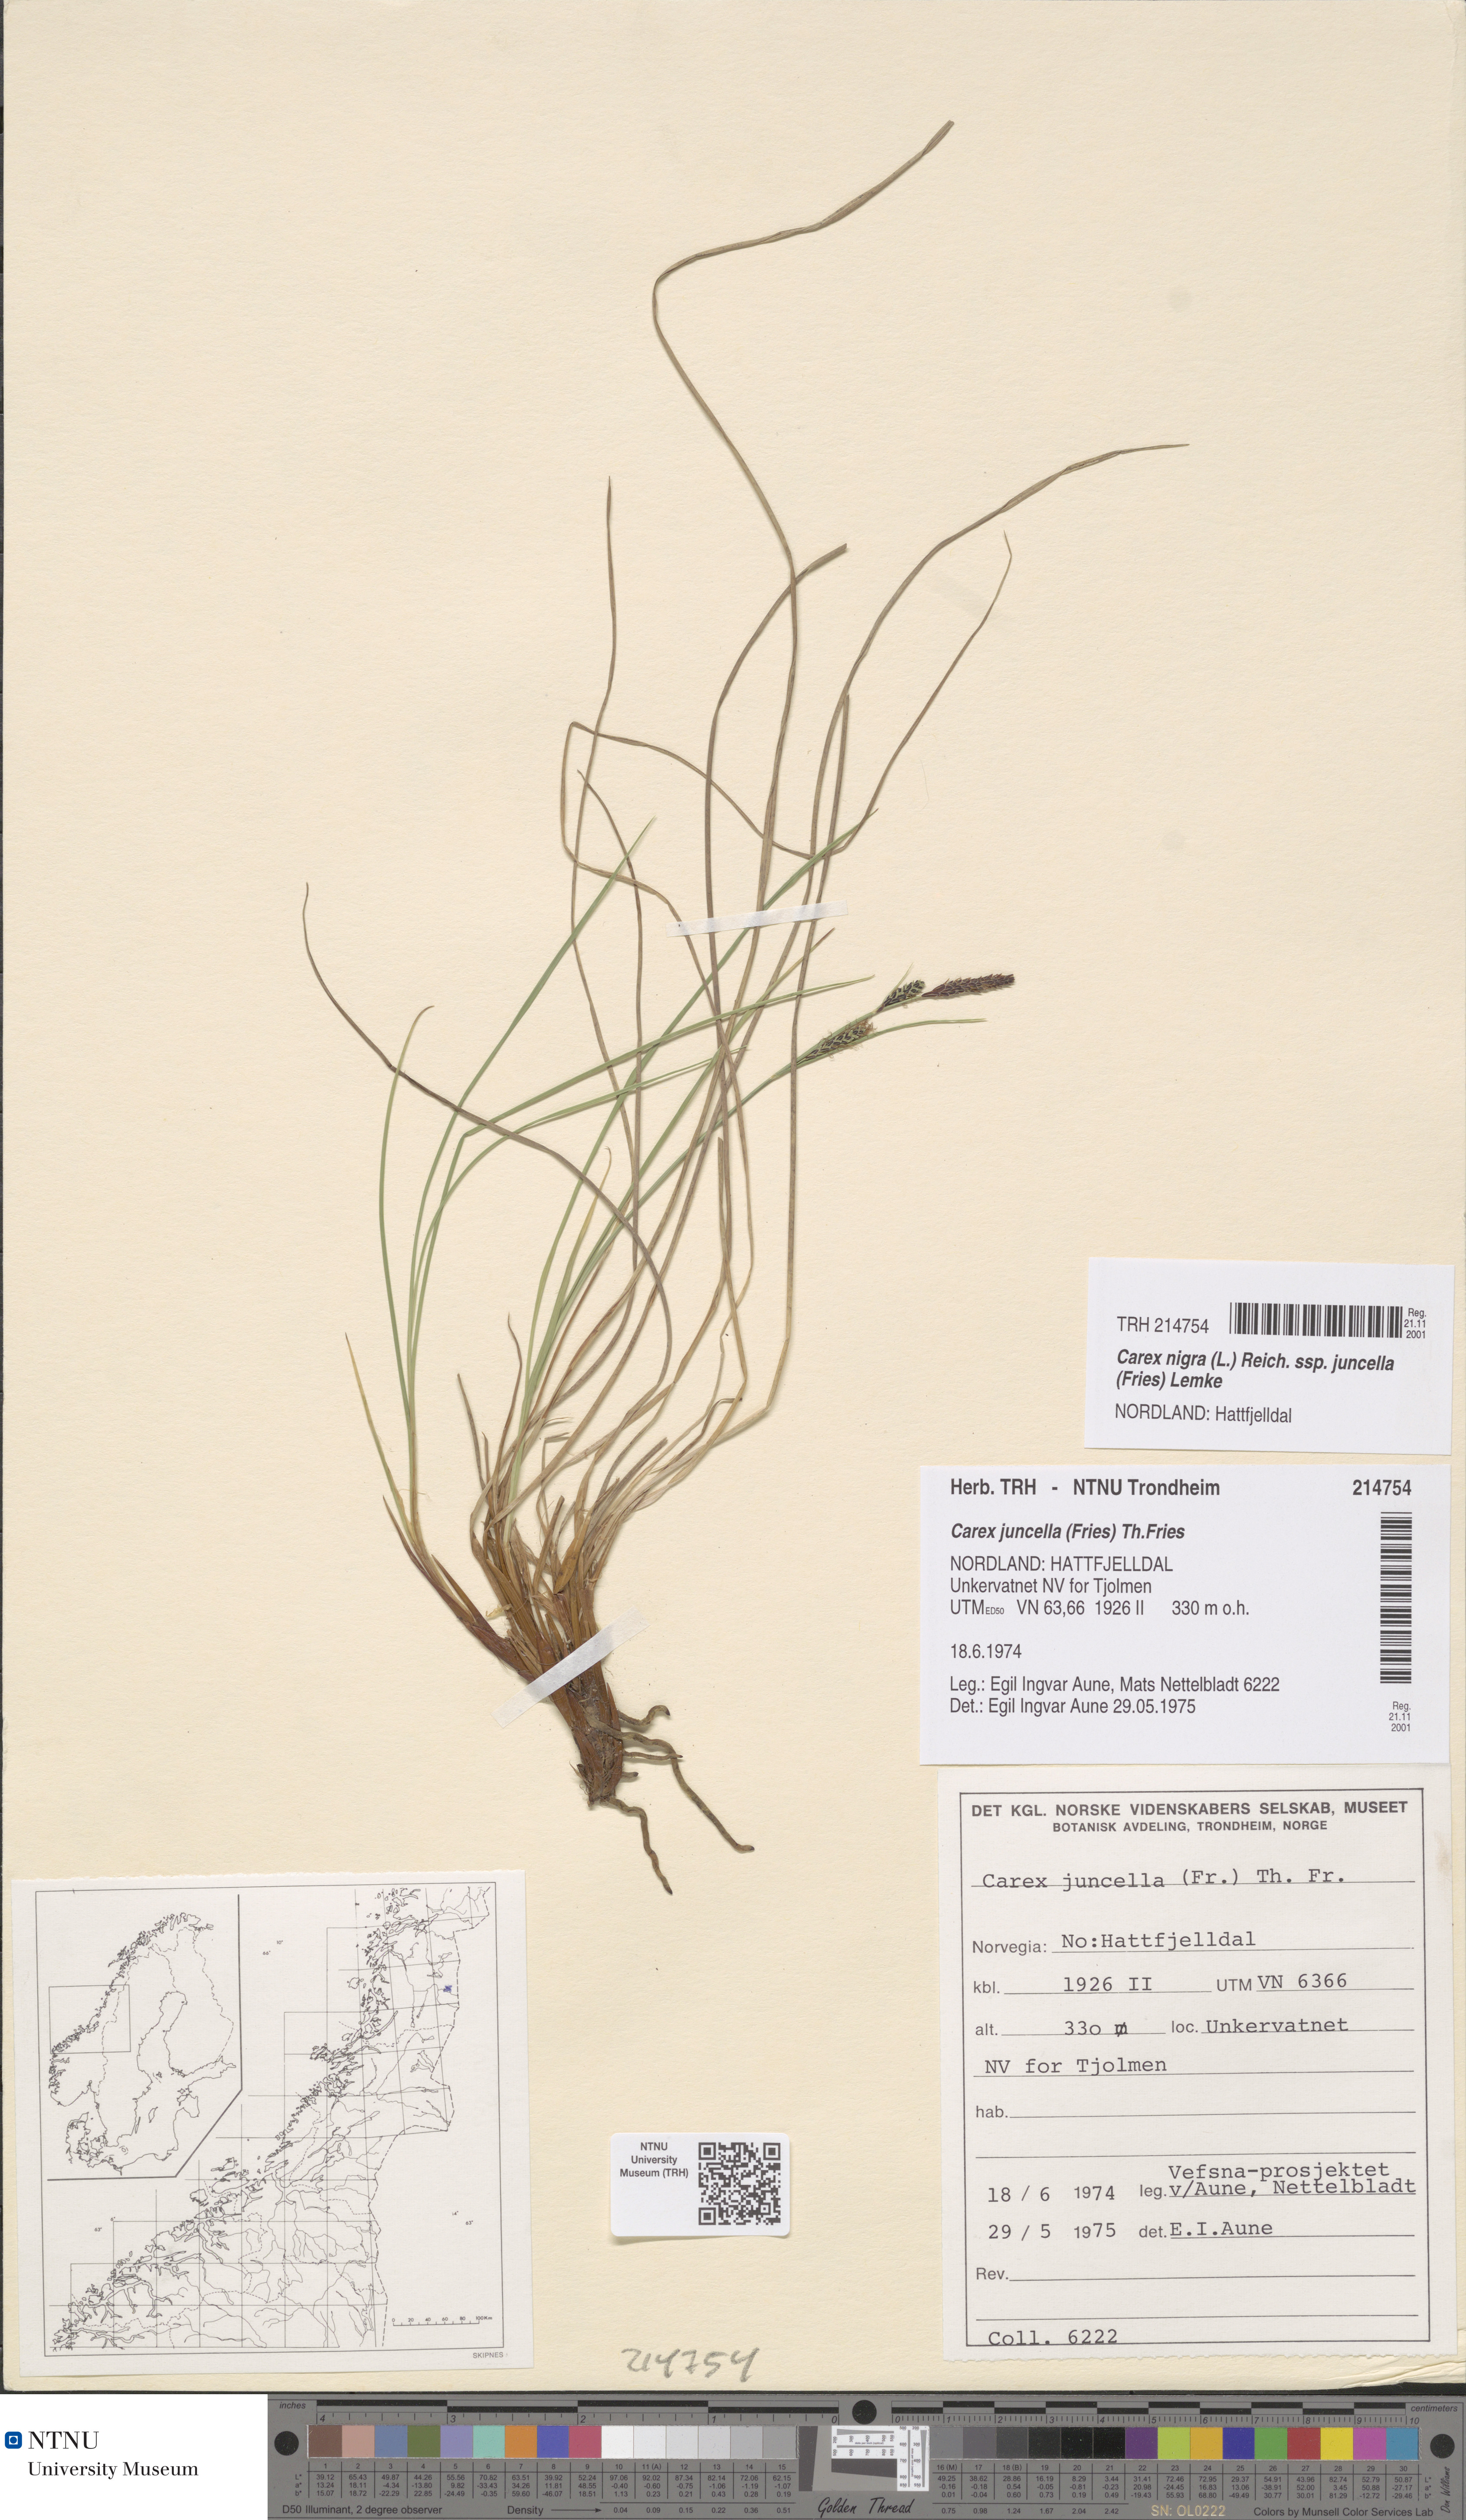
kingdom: Plantae
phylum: Tracheophyta
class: Liliopsida
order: Poales
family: Cyperaceae
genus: Carex
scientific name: Carex nigra
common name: Common sedge
